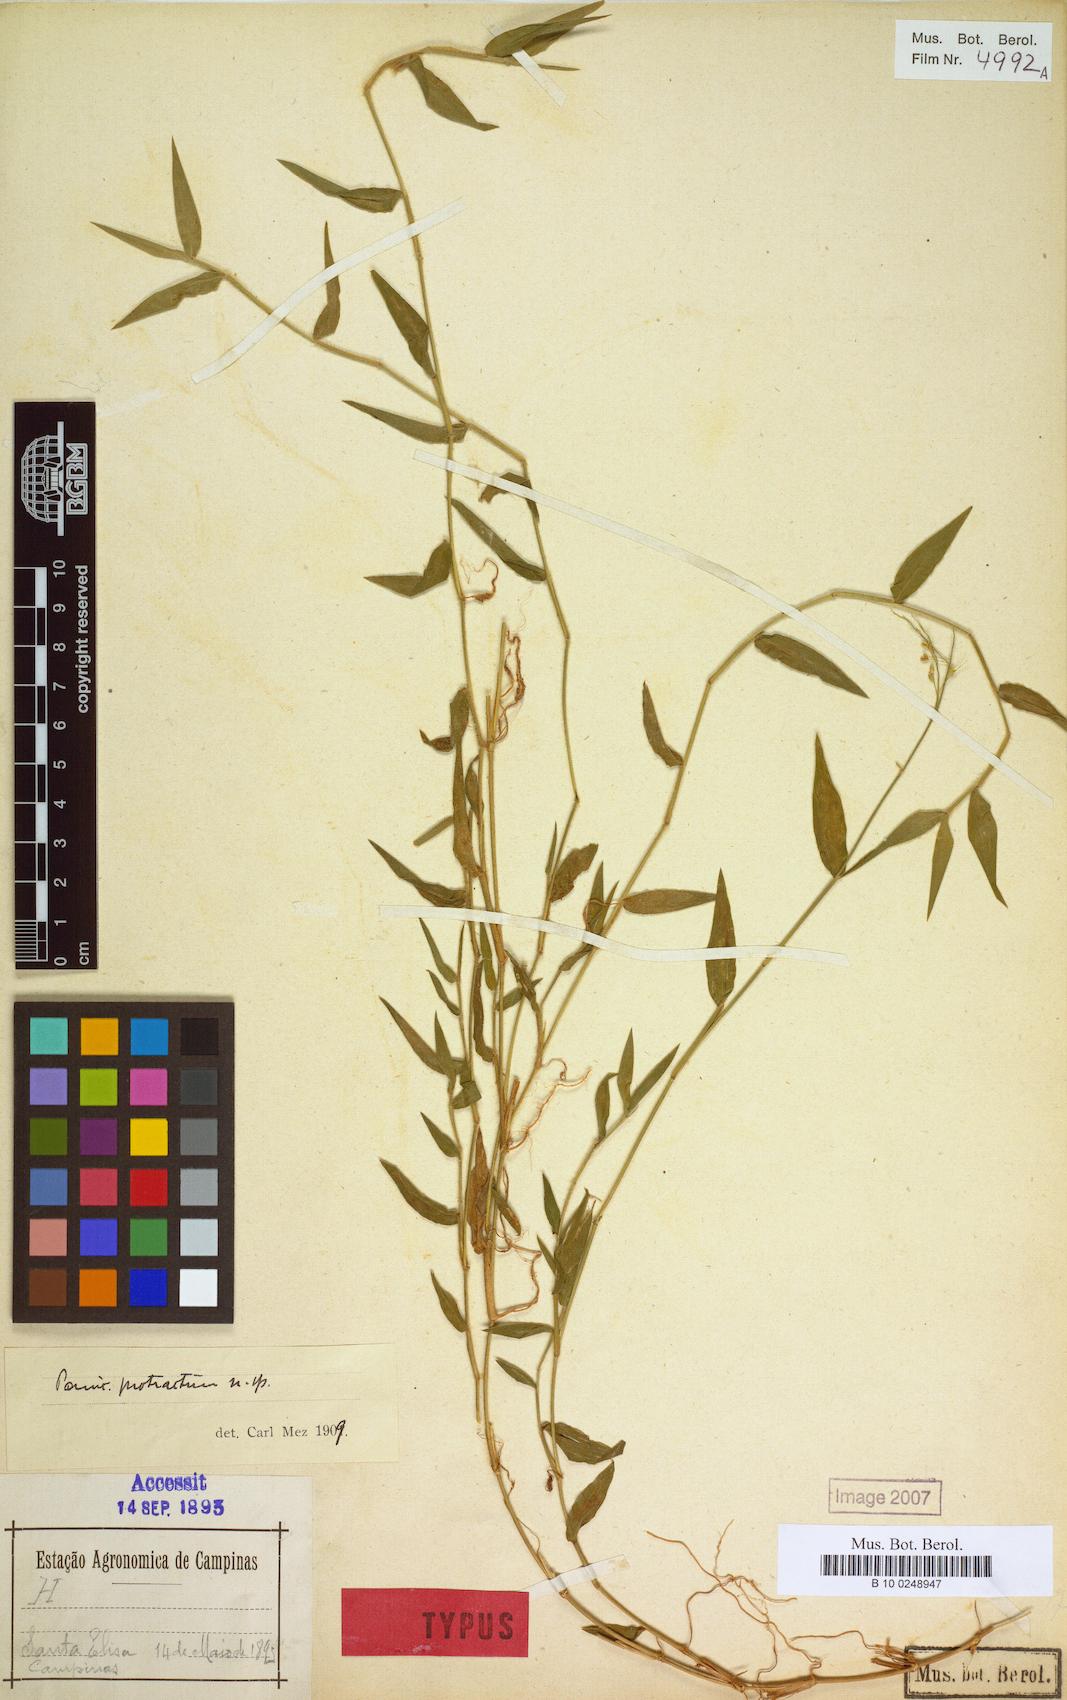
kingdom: Plantae
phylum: Tracheophyta
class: Liliopsida
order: Poales
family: Poaceae
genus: Parodiophyllochloa
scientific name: Parodiophyllochloa pantricha
